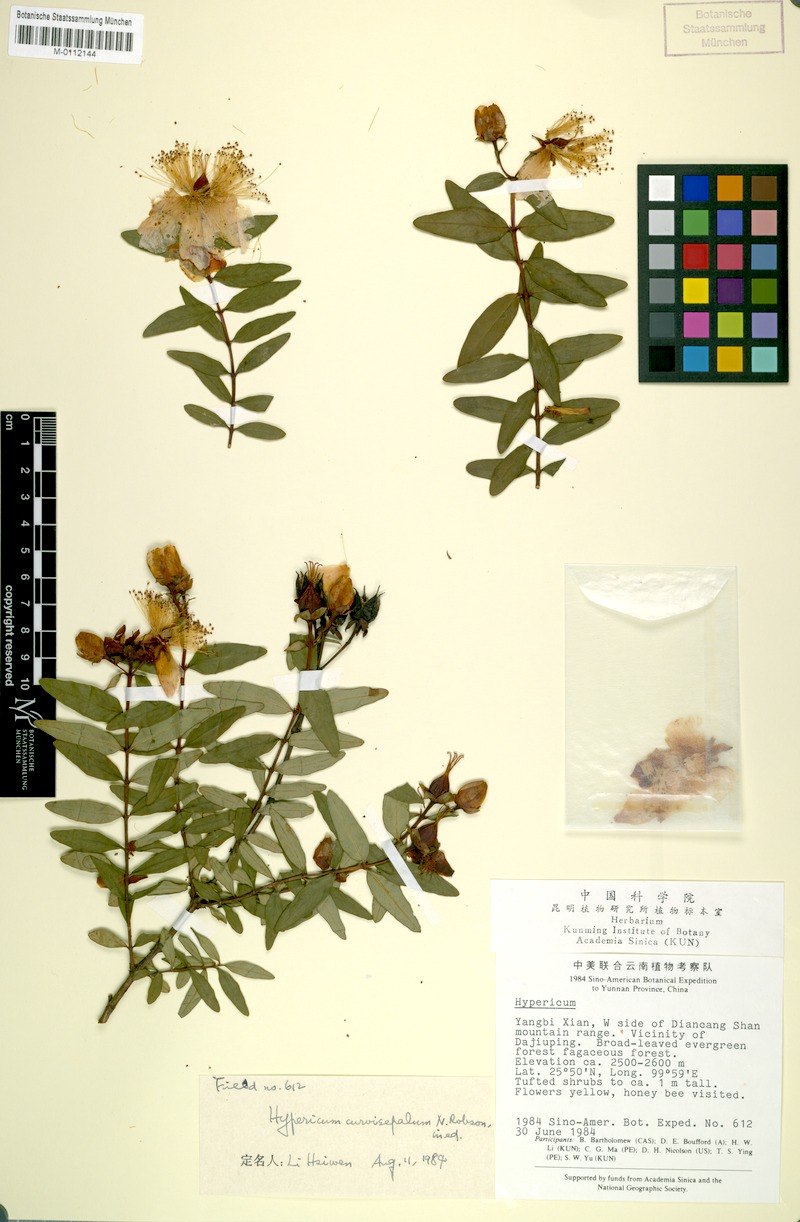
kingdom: Plantae
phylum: Tracheophyta
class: Magnoliopsida
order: Malpighiales
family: Hypericaceae
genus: Hypericum
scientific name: Hypericum curvisepalum
